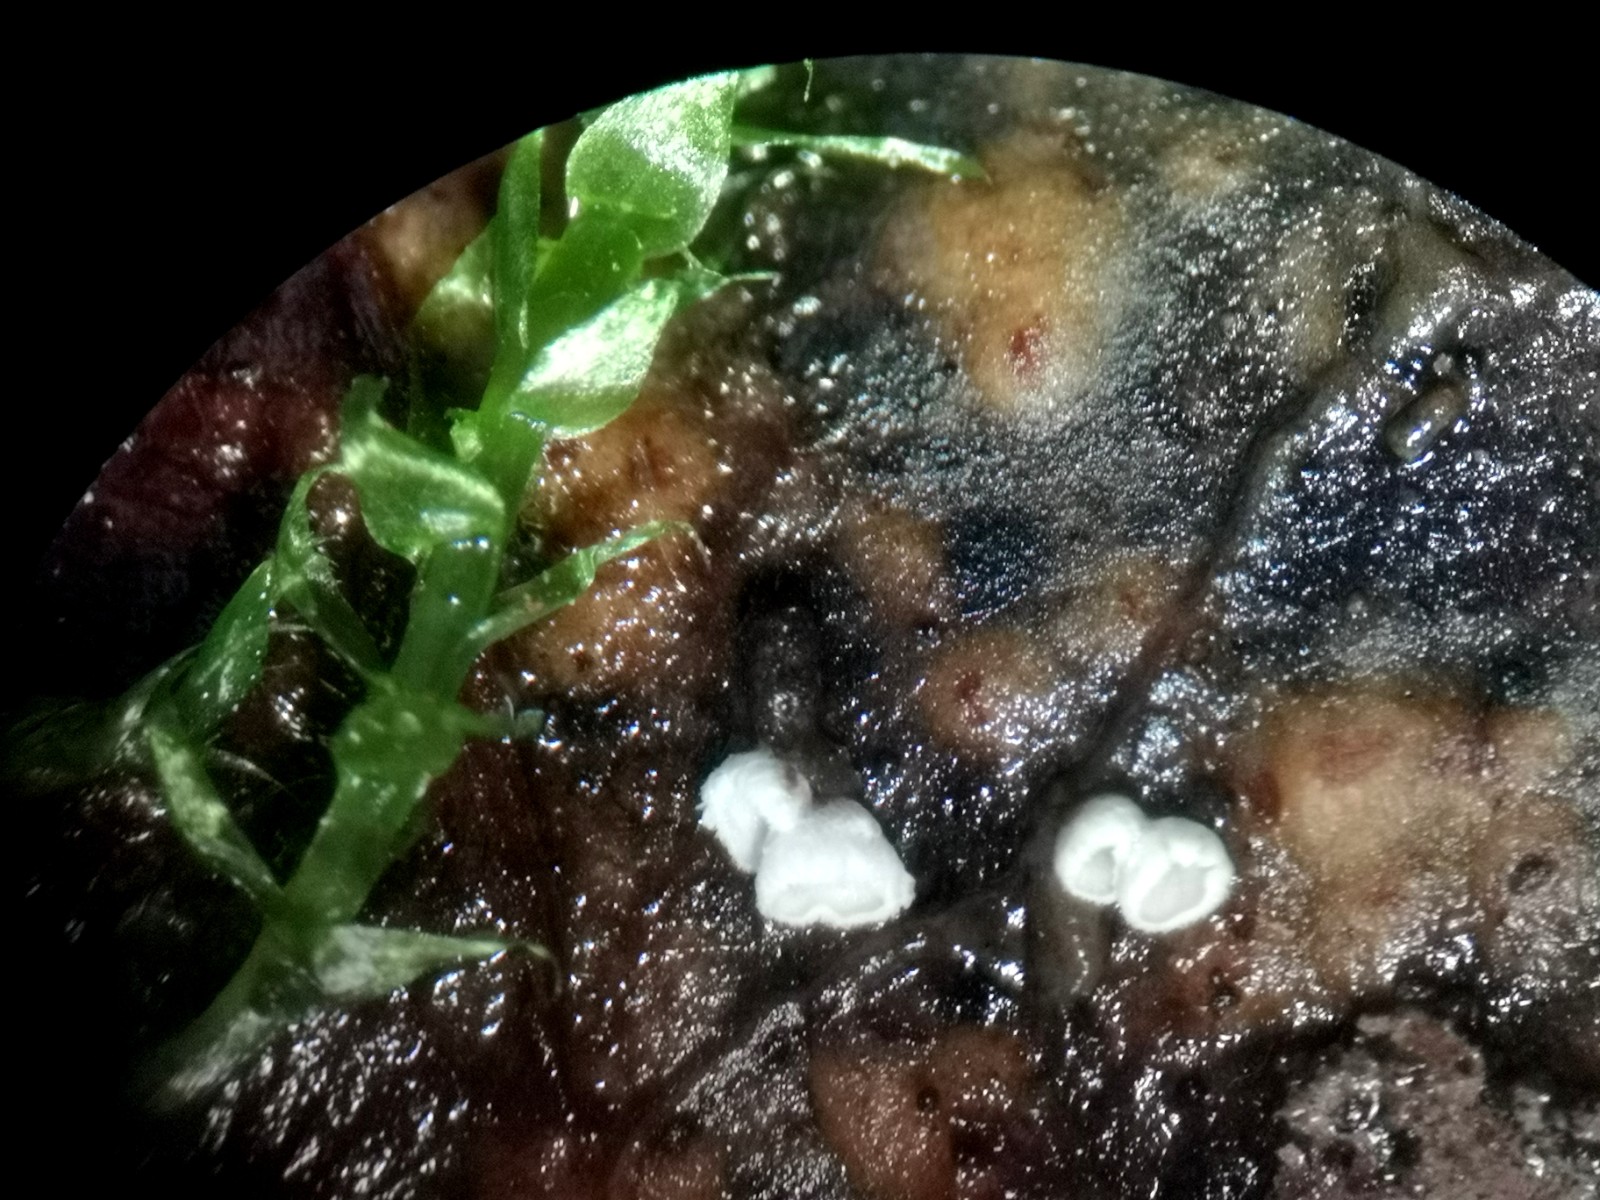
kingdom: Fungi
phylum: Basidiomycota
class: Agaricomycetes
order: Agaricales
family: Niaceae
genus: Flagelloscypha
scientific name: Flagelloscypha minutissima
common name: lille hængeskål
